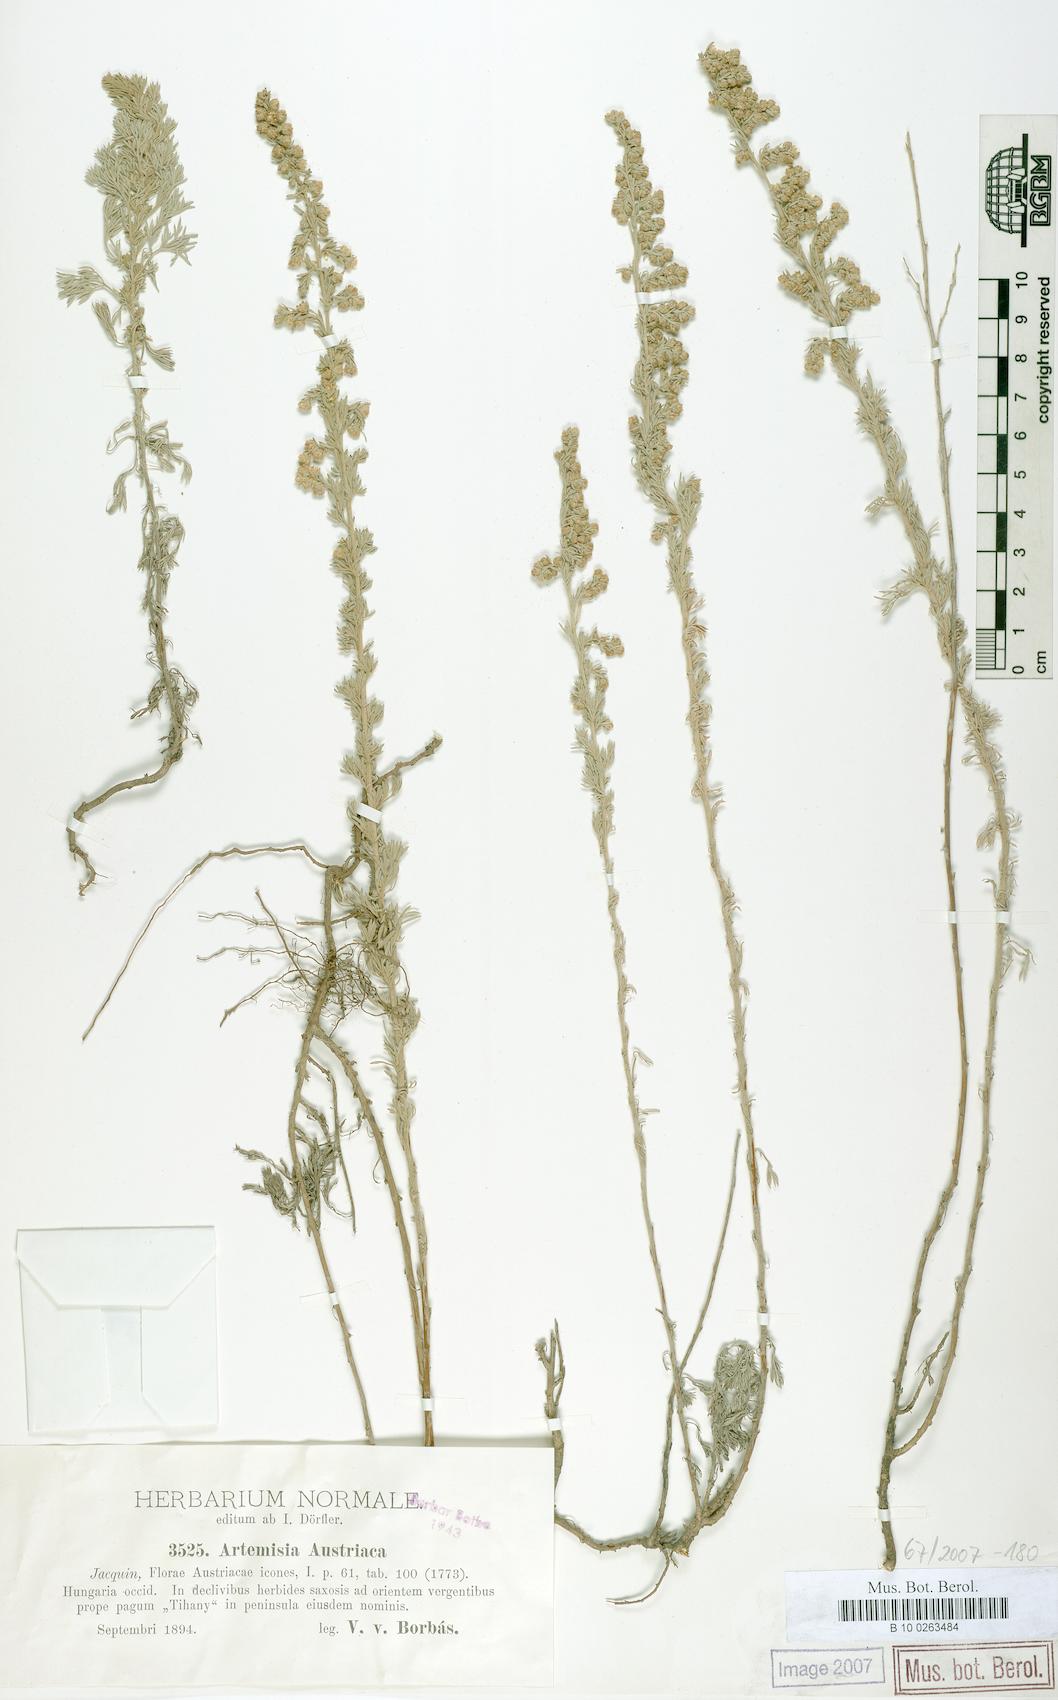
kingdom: Plantae
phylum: Tracheophyta
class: Magnoliopsida
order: Asterales
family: Asteraceae
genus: Artemisia
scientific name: Artemisia austriaca
